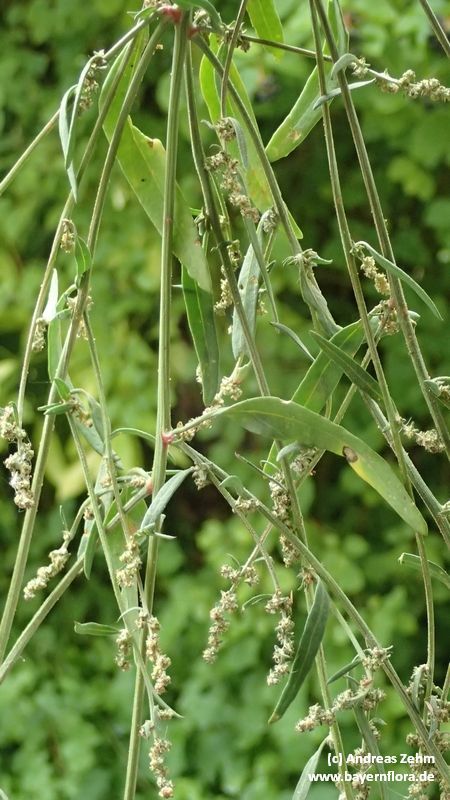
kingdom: Plantae
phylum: Tracheophyta
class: Magnoliopsida
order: Caryophyllales
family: Amaranthaceae
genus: Atriplex
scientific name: Atriplex patula
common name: Common orache
